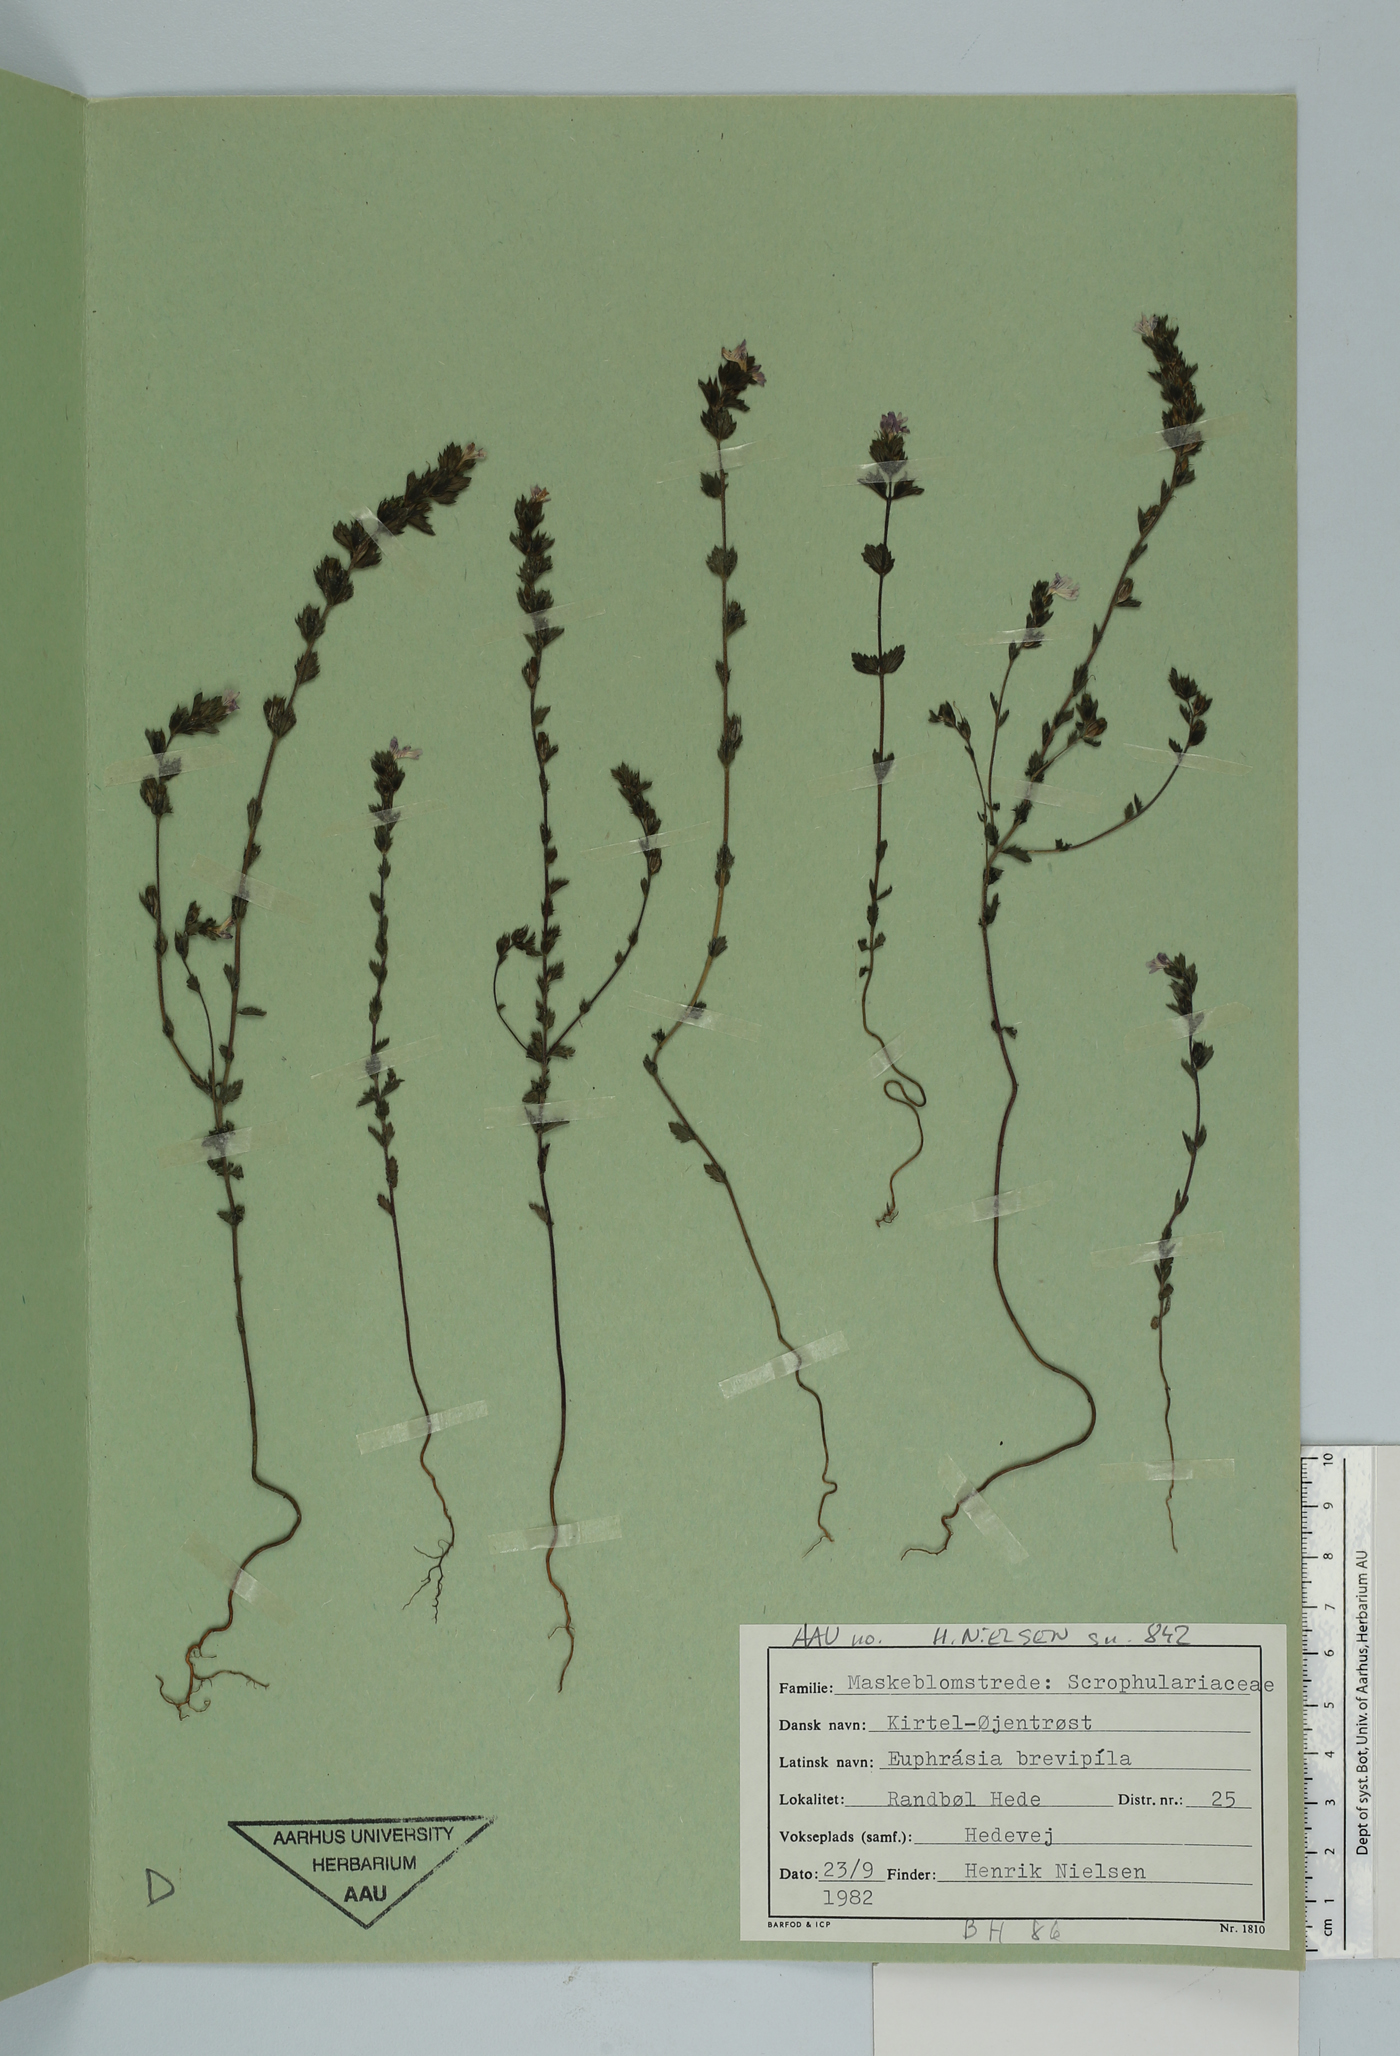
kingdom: Plantae
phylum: Tracheophyta
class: Magnoliopsida
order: Lamiales
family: Orobanchaceae
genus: Euphrasia
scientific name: Euphrasia vernalis
